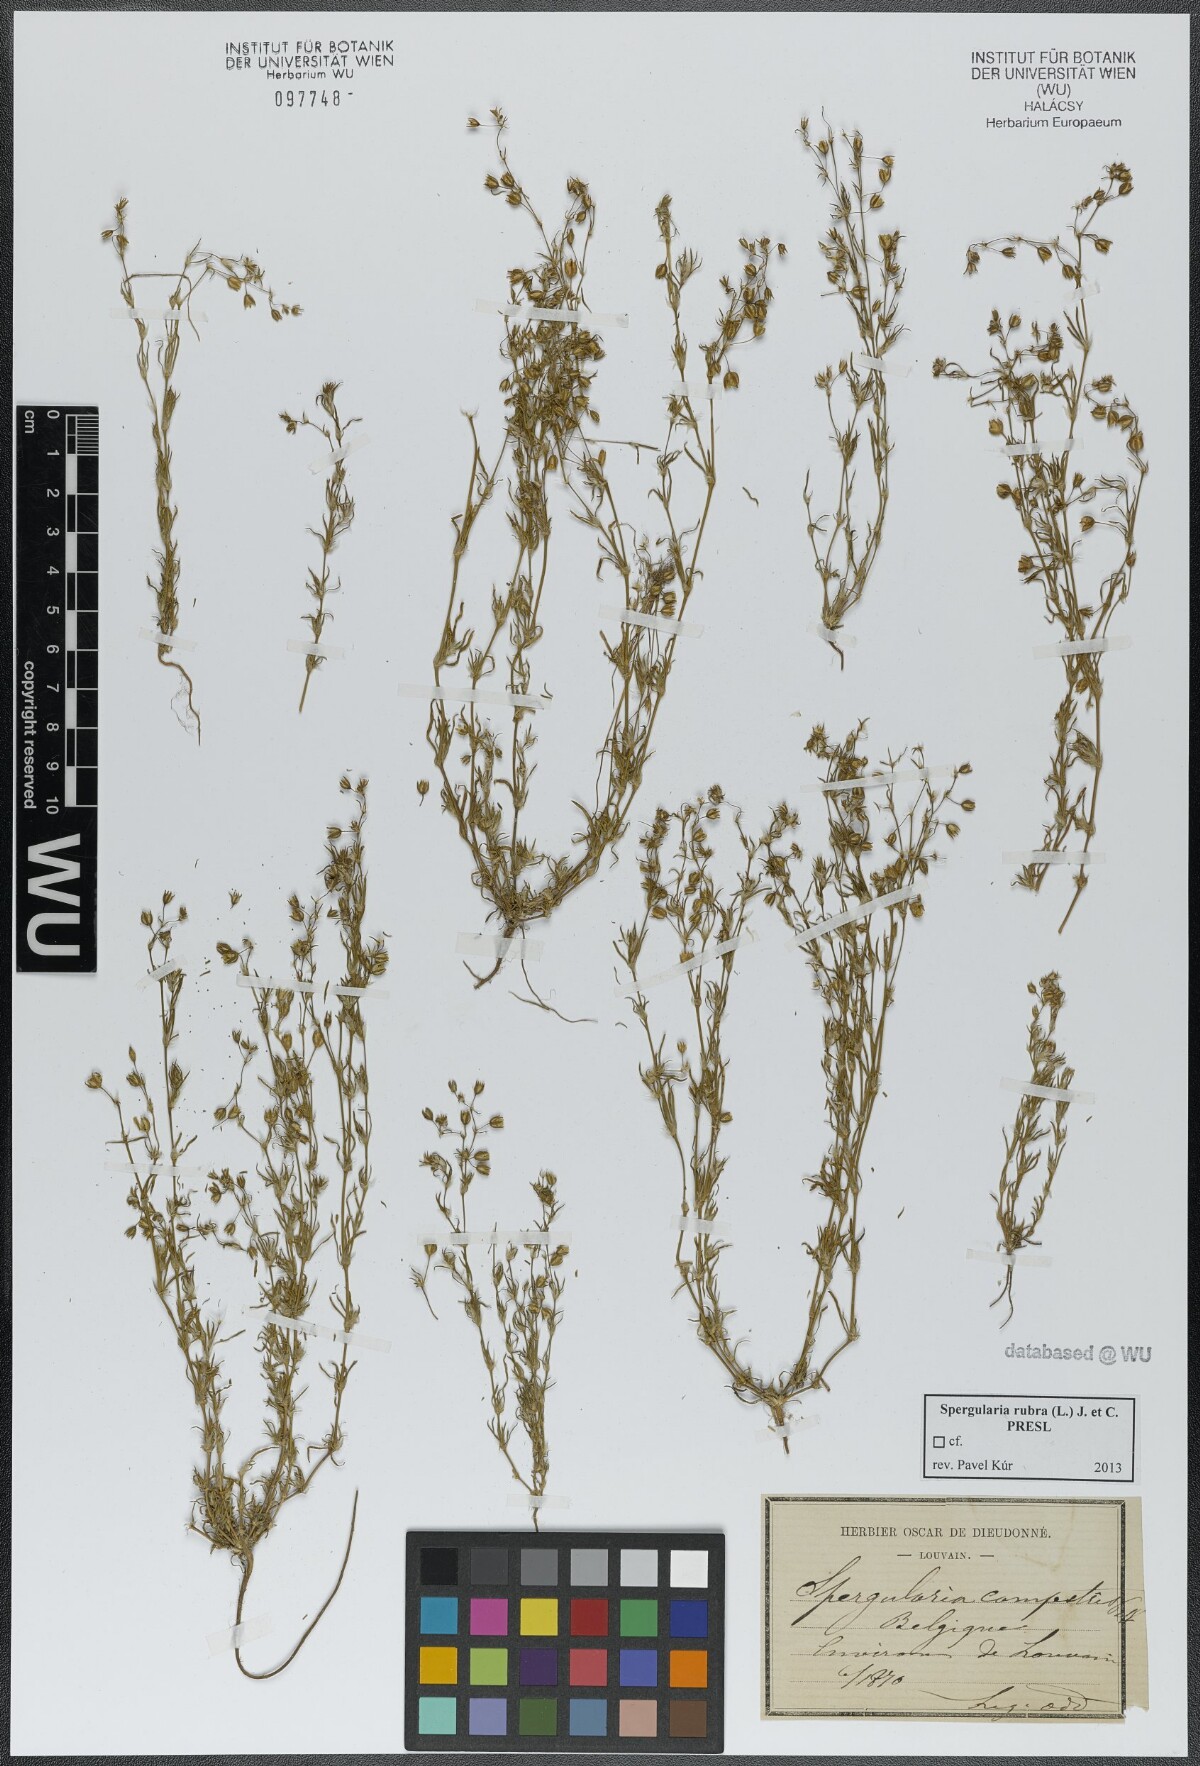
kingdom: Plantae
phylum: Tracheophyta
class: Magnoliopsida
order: Caryophyllales
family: Caryophyllaceae
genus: Spergularia
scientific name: Spergularia rubra
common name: Red sand-spurrey
